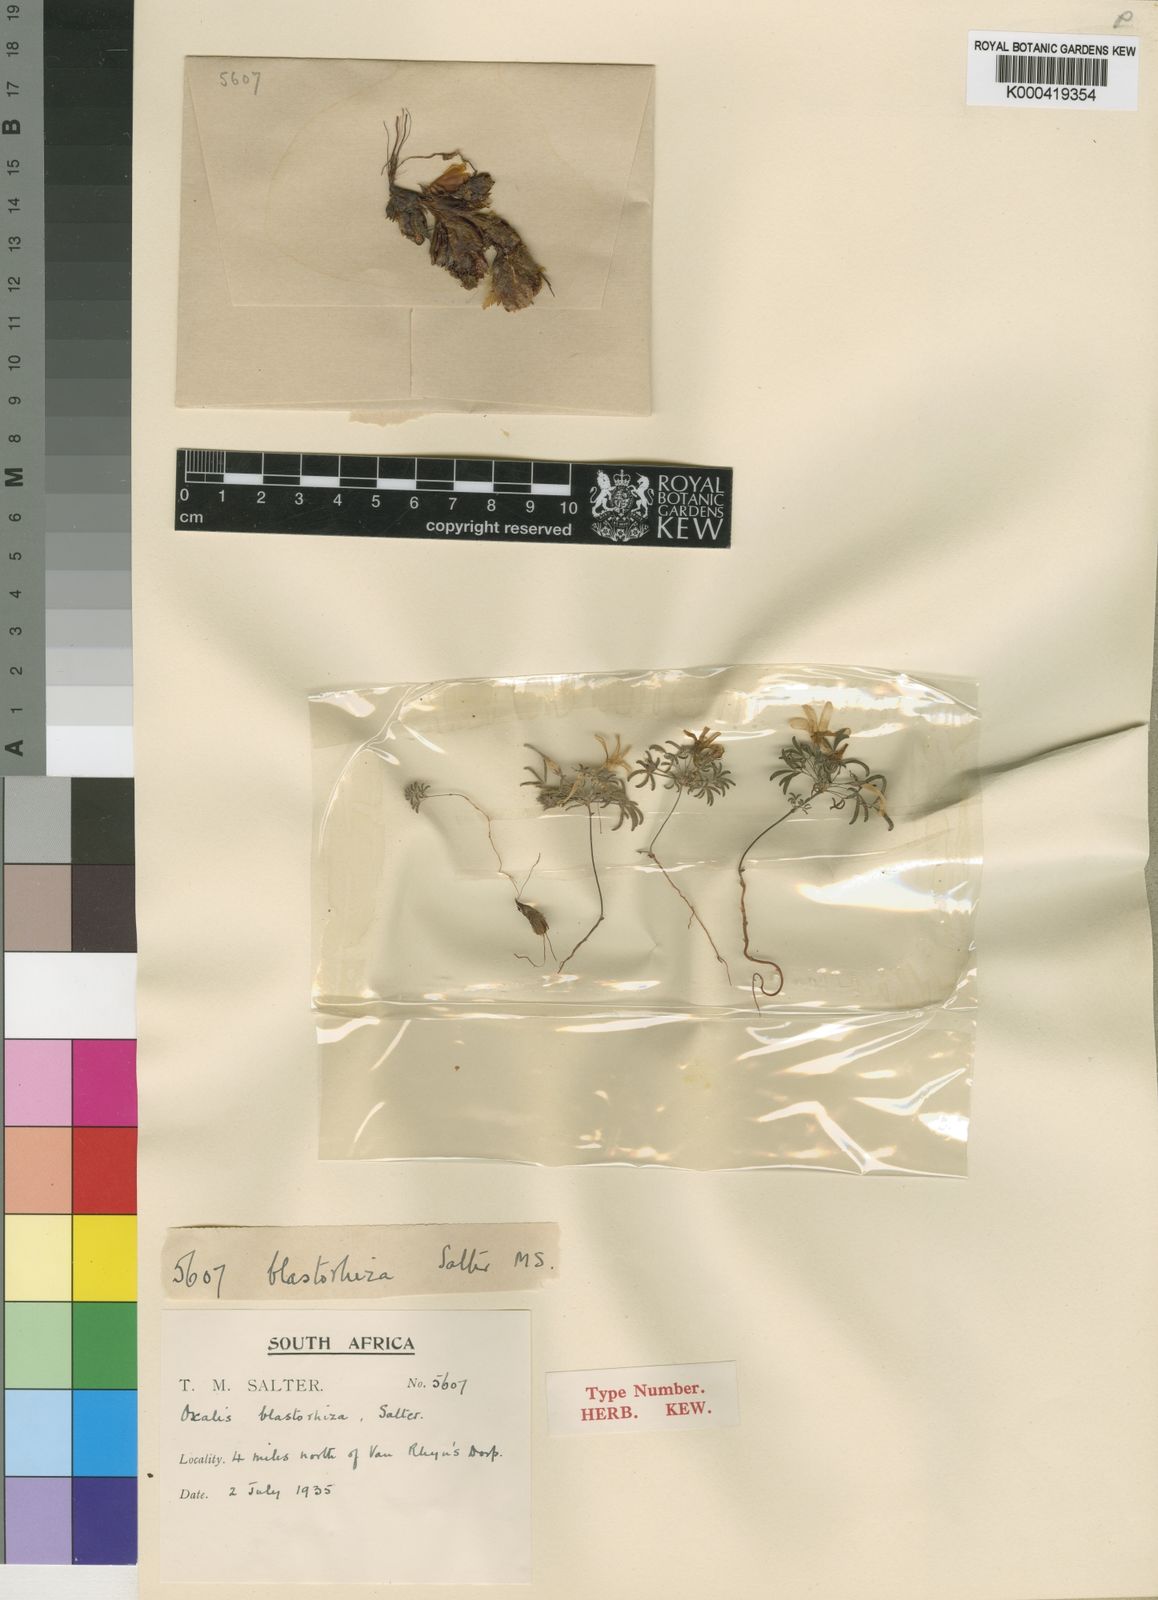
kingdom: Plantae
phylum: Tracheophyta
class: Magnoliopsida
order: Oxalidales
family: Oxalidaceae
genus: Oxalis
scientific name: Oxalis blastorhiza
